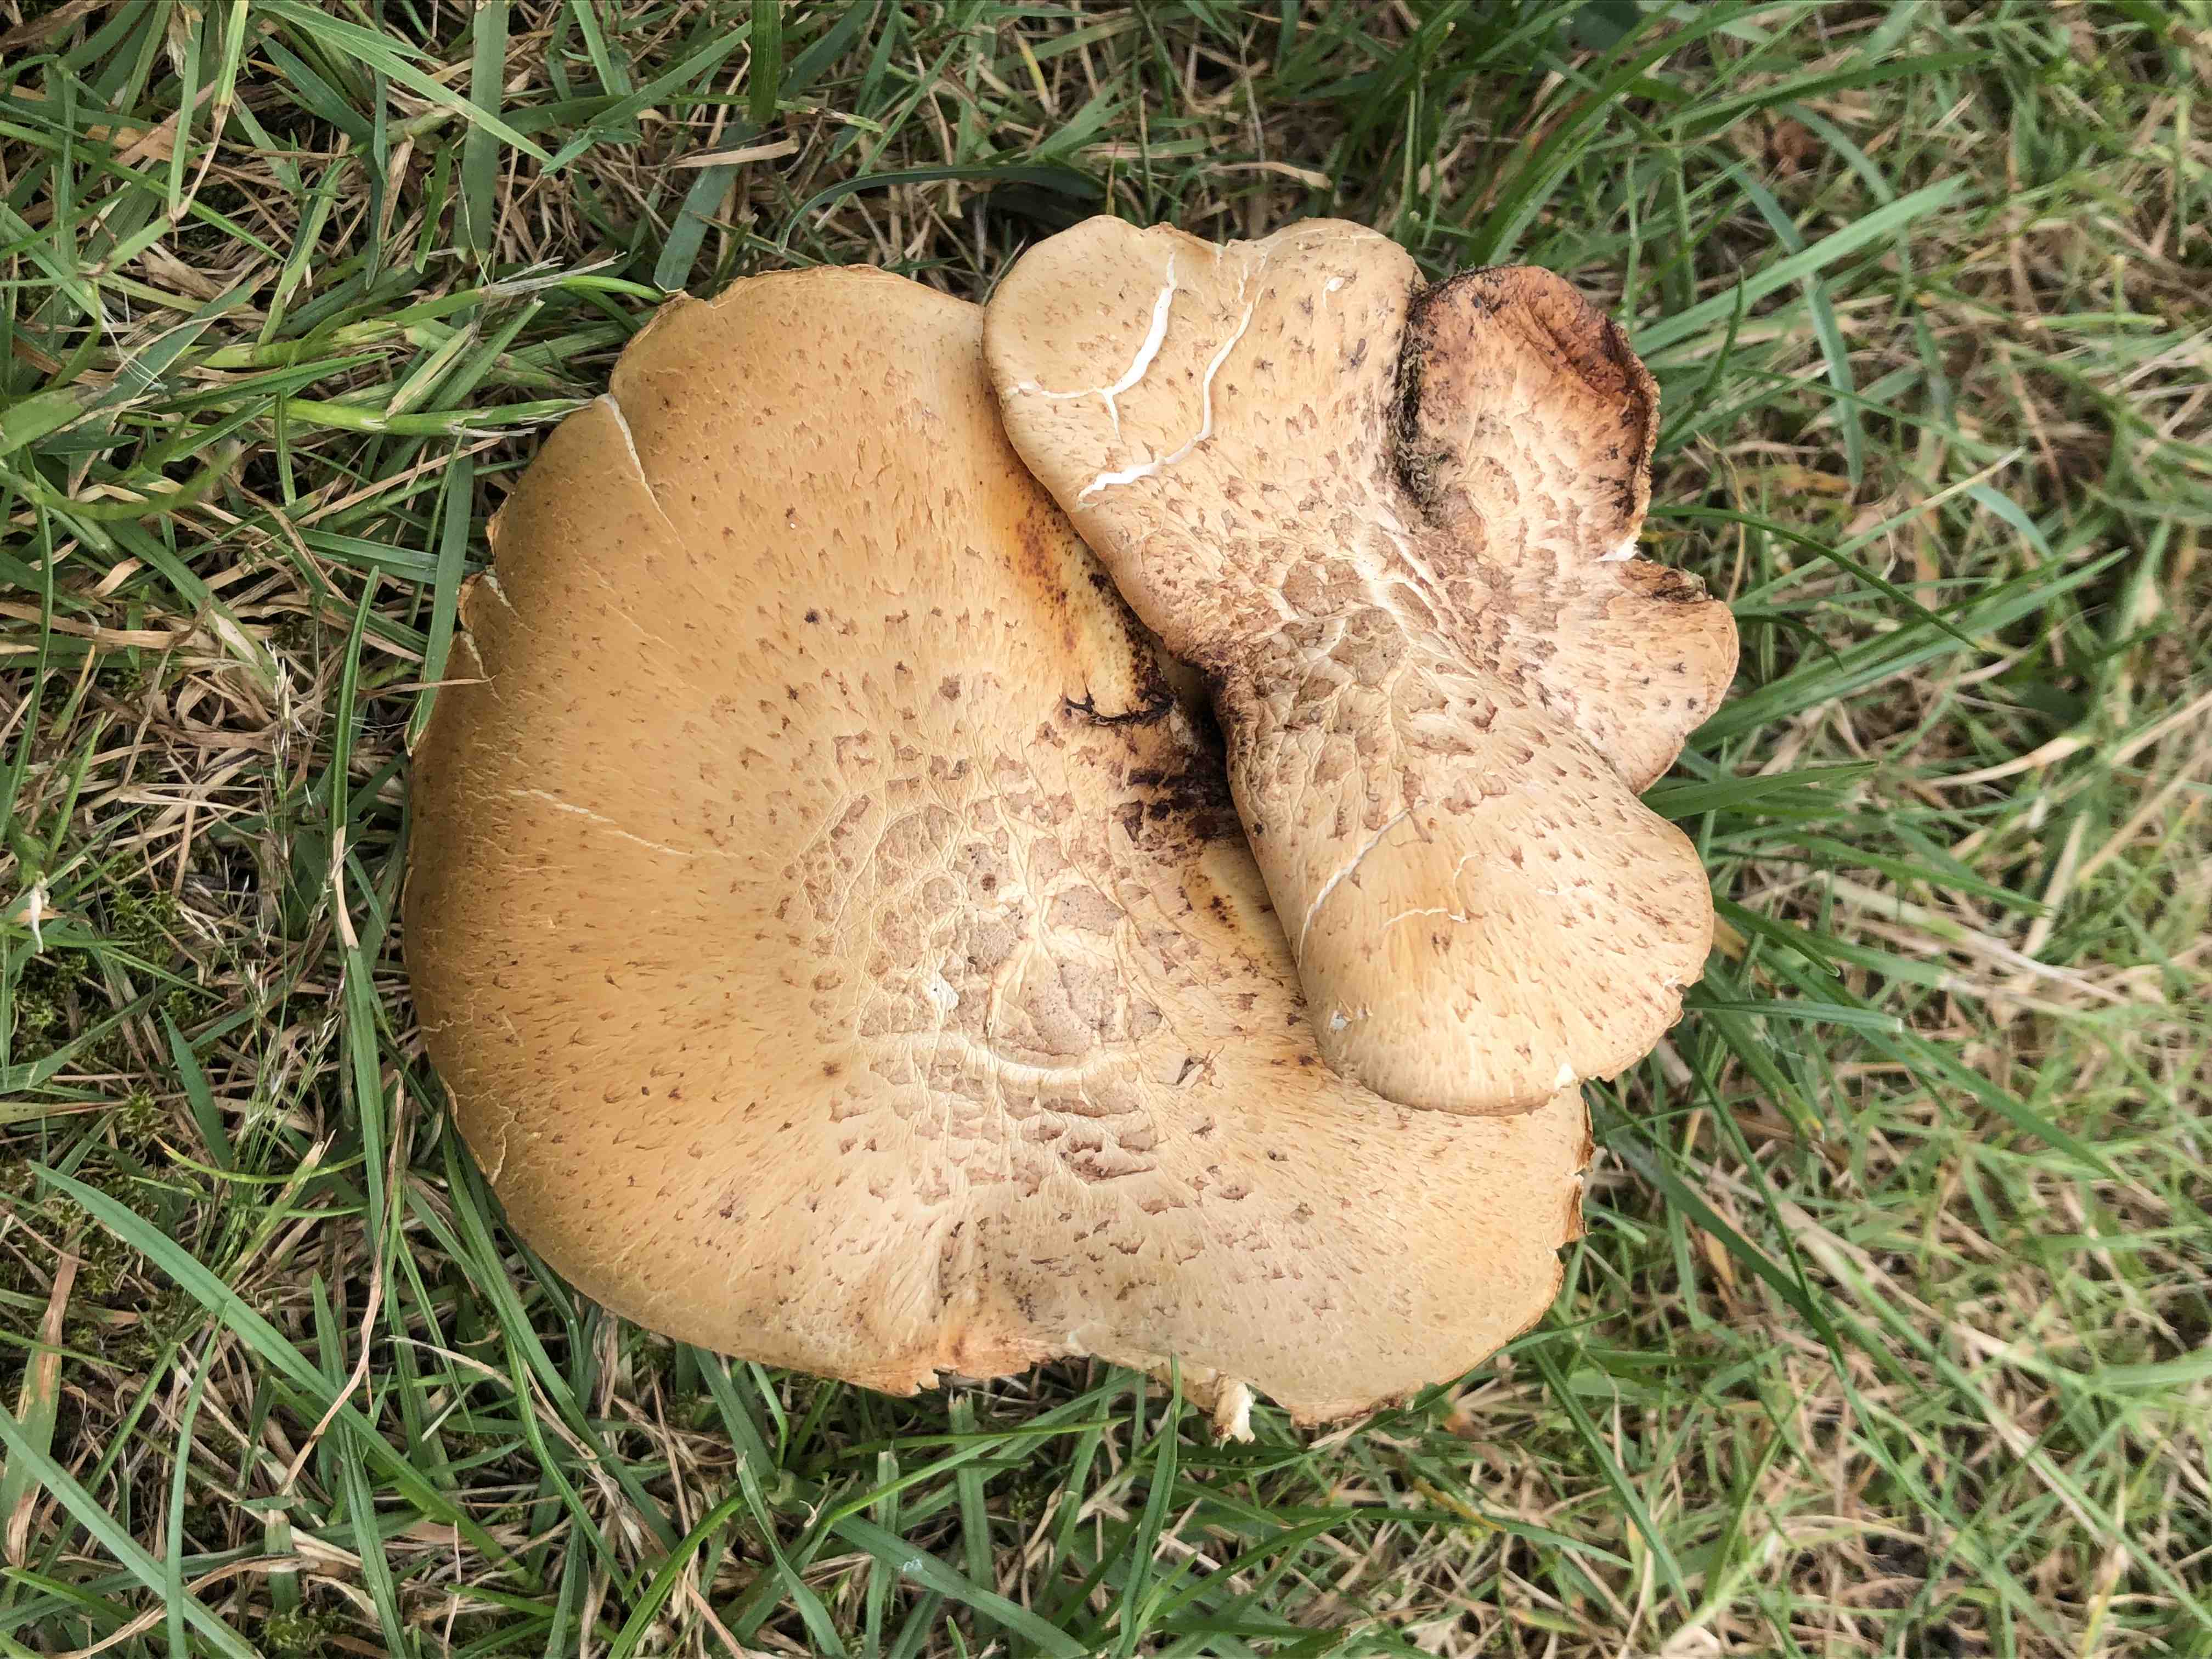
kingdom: Fungi
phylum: Basidiomycota
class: Agaricomycetes
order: Gloeophyllales
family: Gloeophyllaceae
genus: Neolentinus
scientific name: Neolentinus lepideus
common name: skællet sejhat
